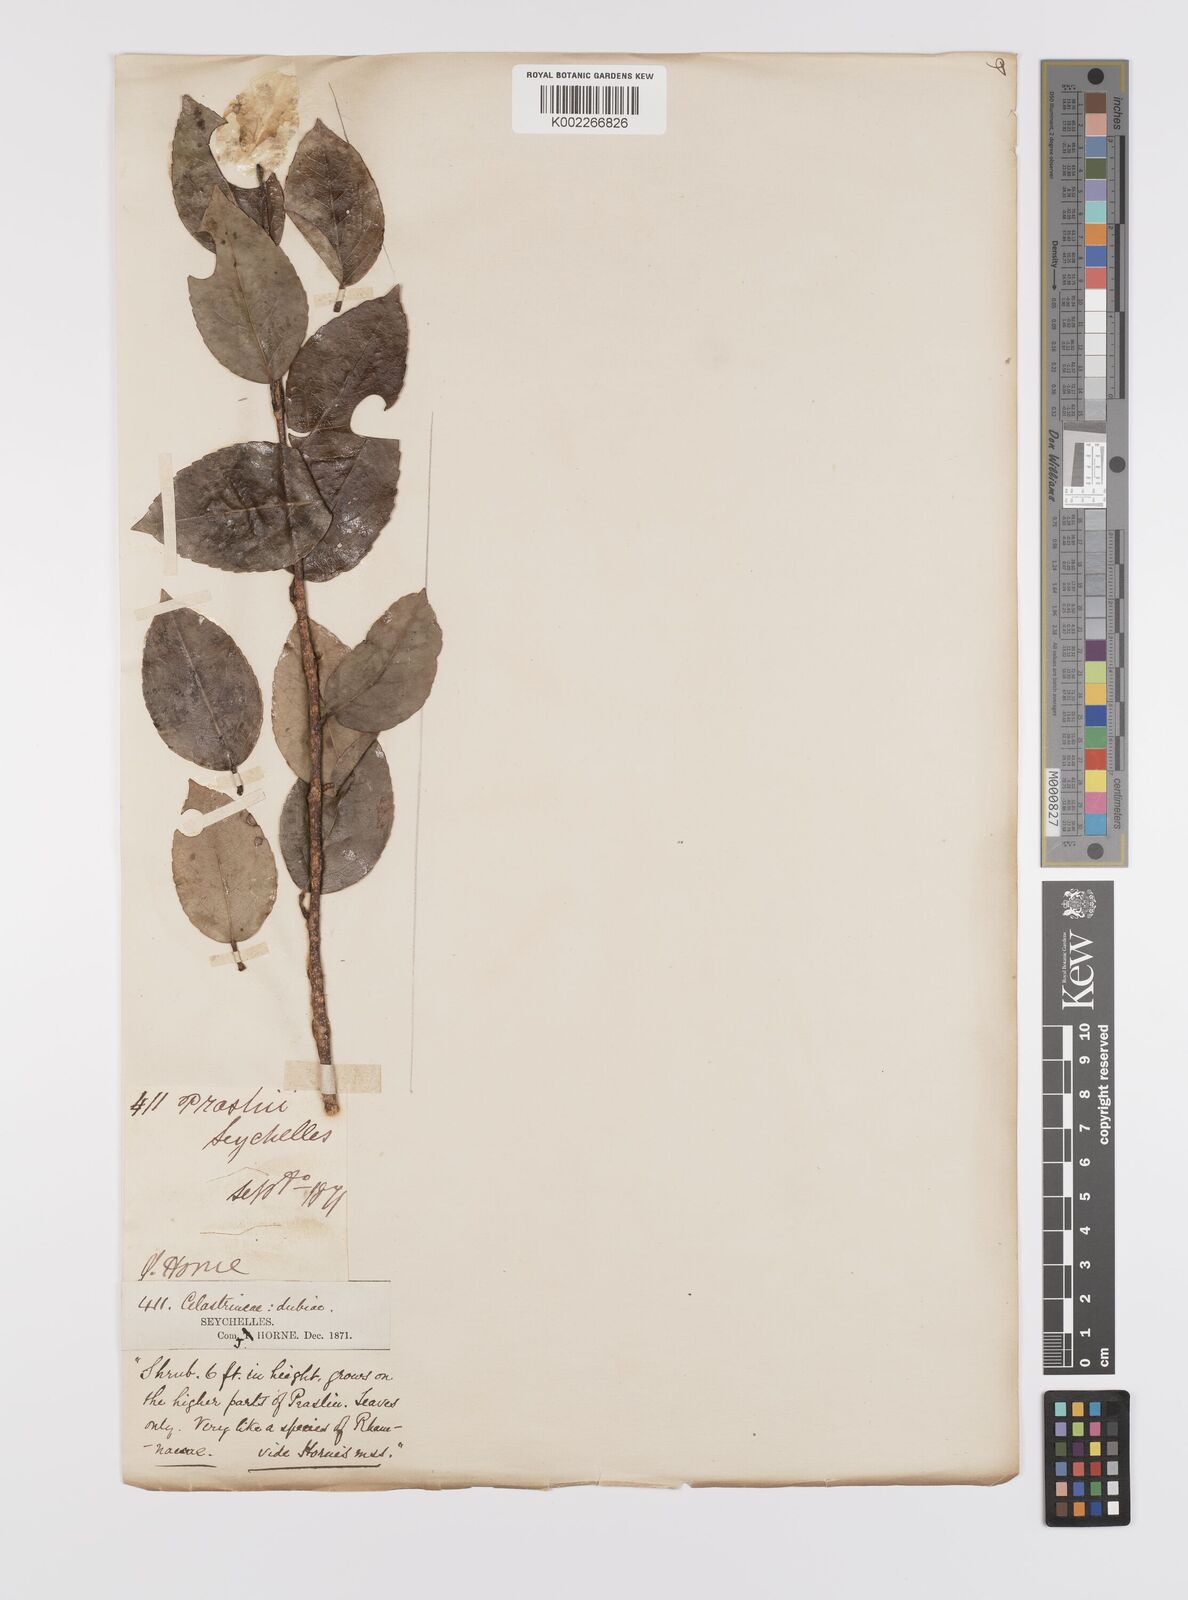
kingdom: Plantae
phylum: Tracheophyta
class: Magnoliopsida
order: Celastrales
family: Celastraceae
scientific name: Celastraceae
